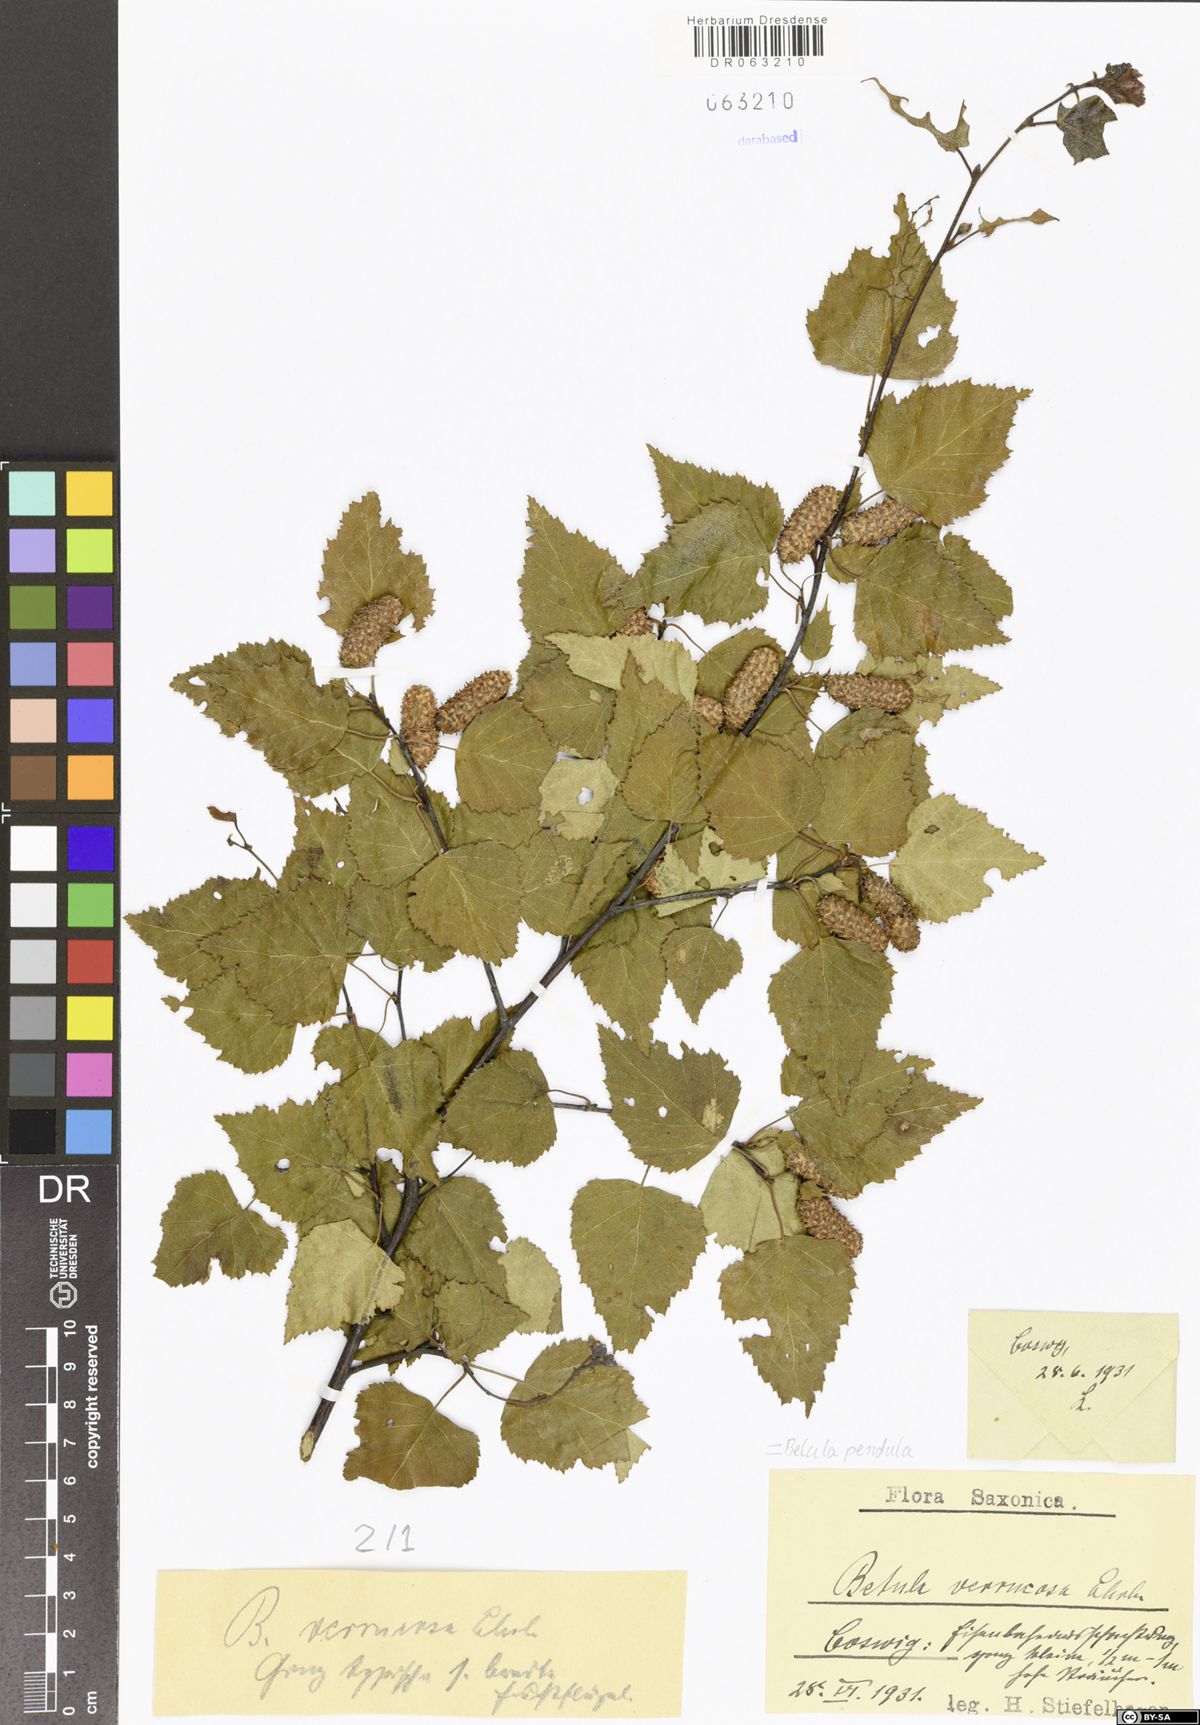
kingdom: Plantae
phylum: Tracheophyta
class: Magnoliopsida
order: Fagales
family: Betulaceae
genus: Betula
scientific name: Betula pendula
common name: Silver birch
